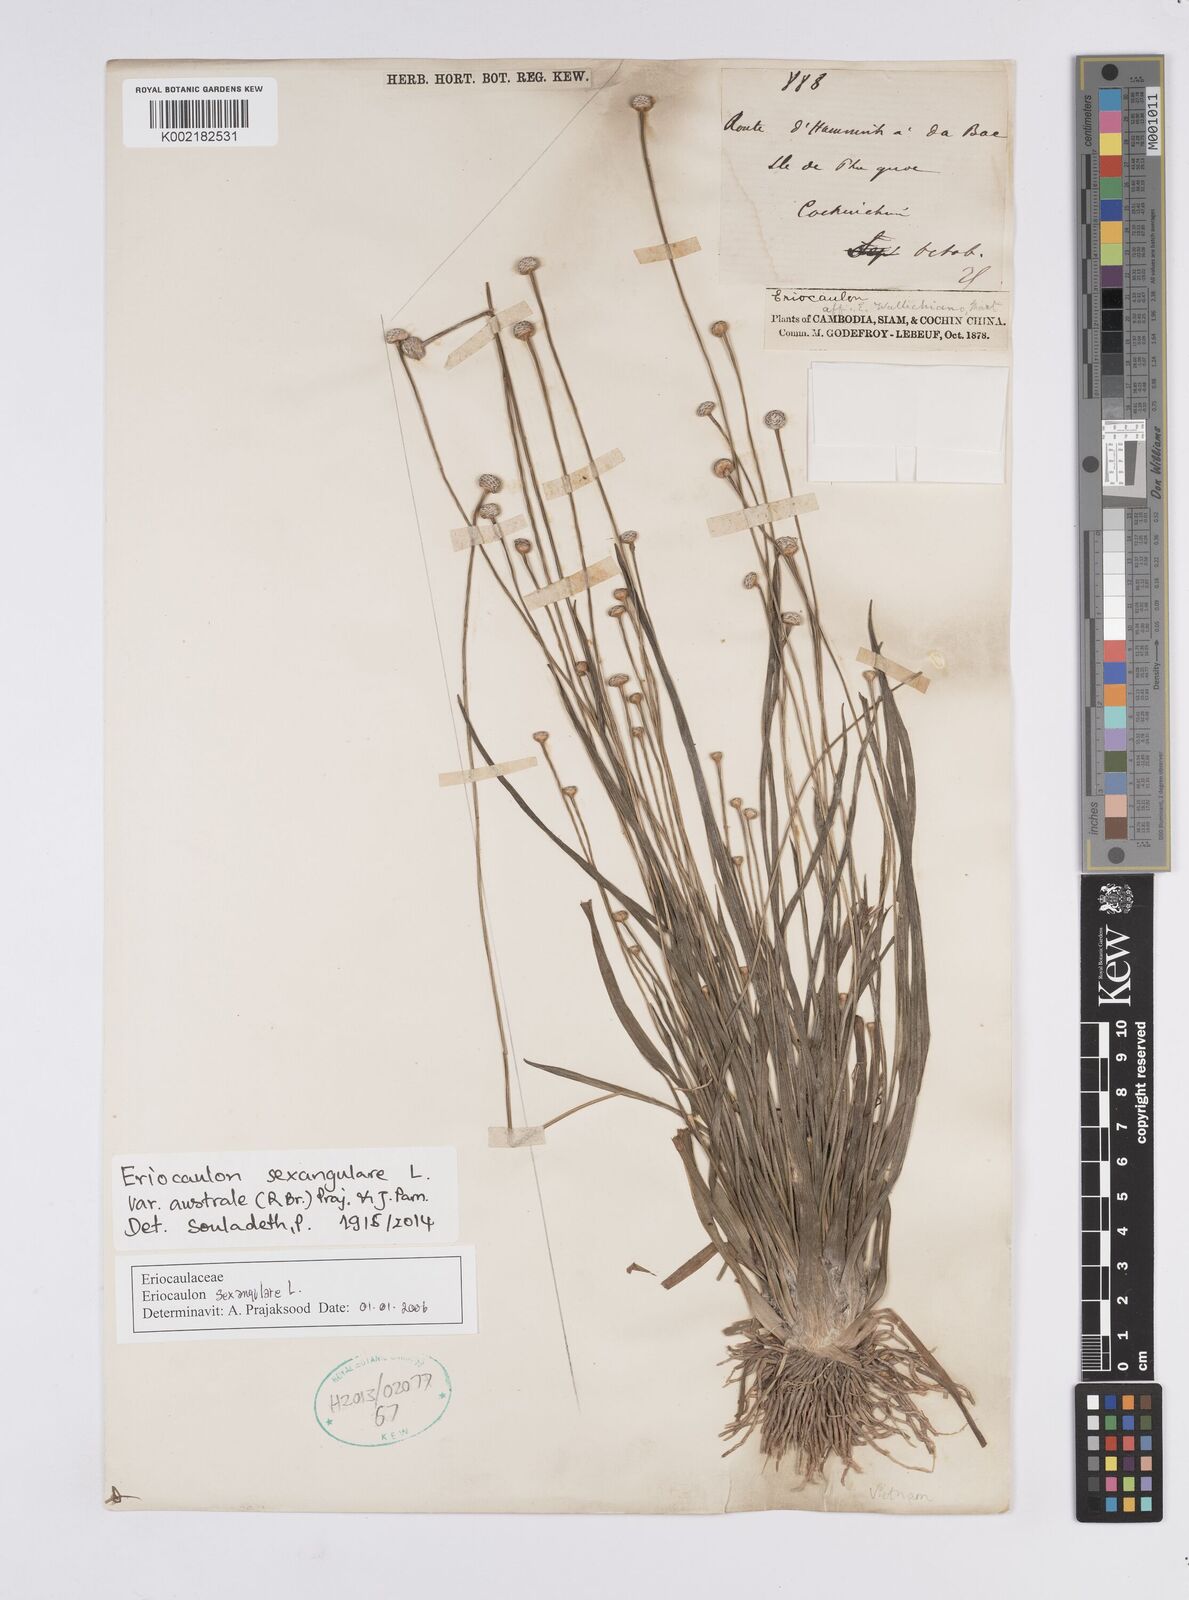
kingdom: Plantae
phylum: Tracheophyta
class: Liliopsida
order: Poales
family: Eriocaulaceae
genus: Eriocaulon
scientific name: Eriocaulon australe
